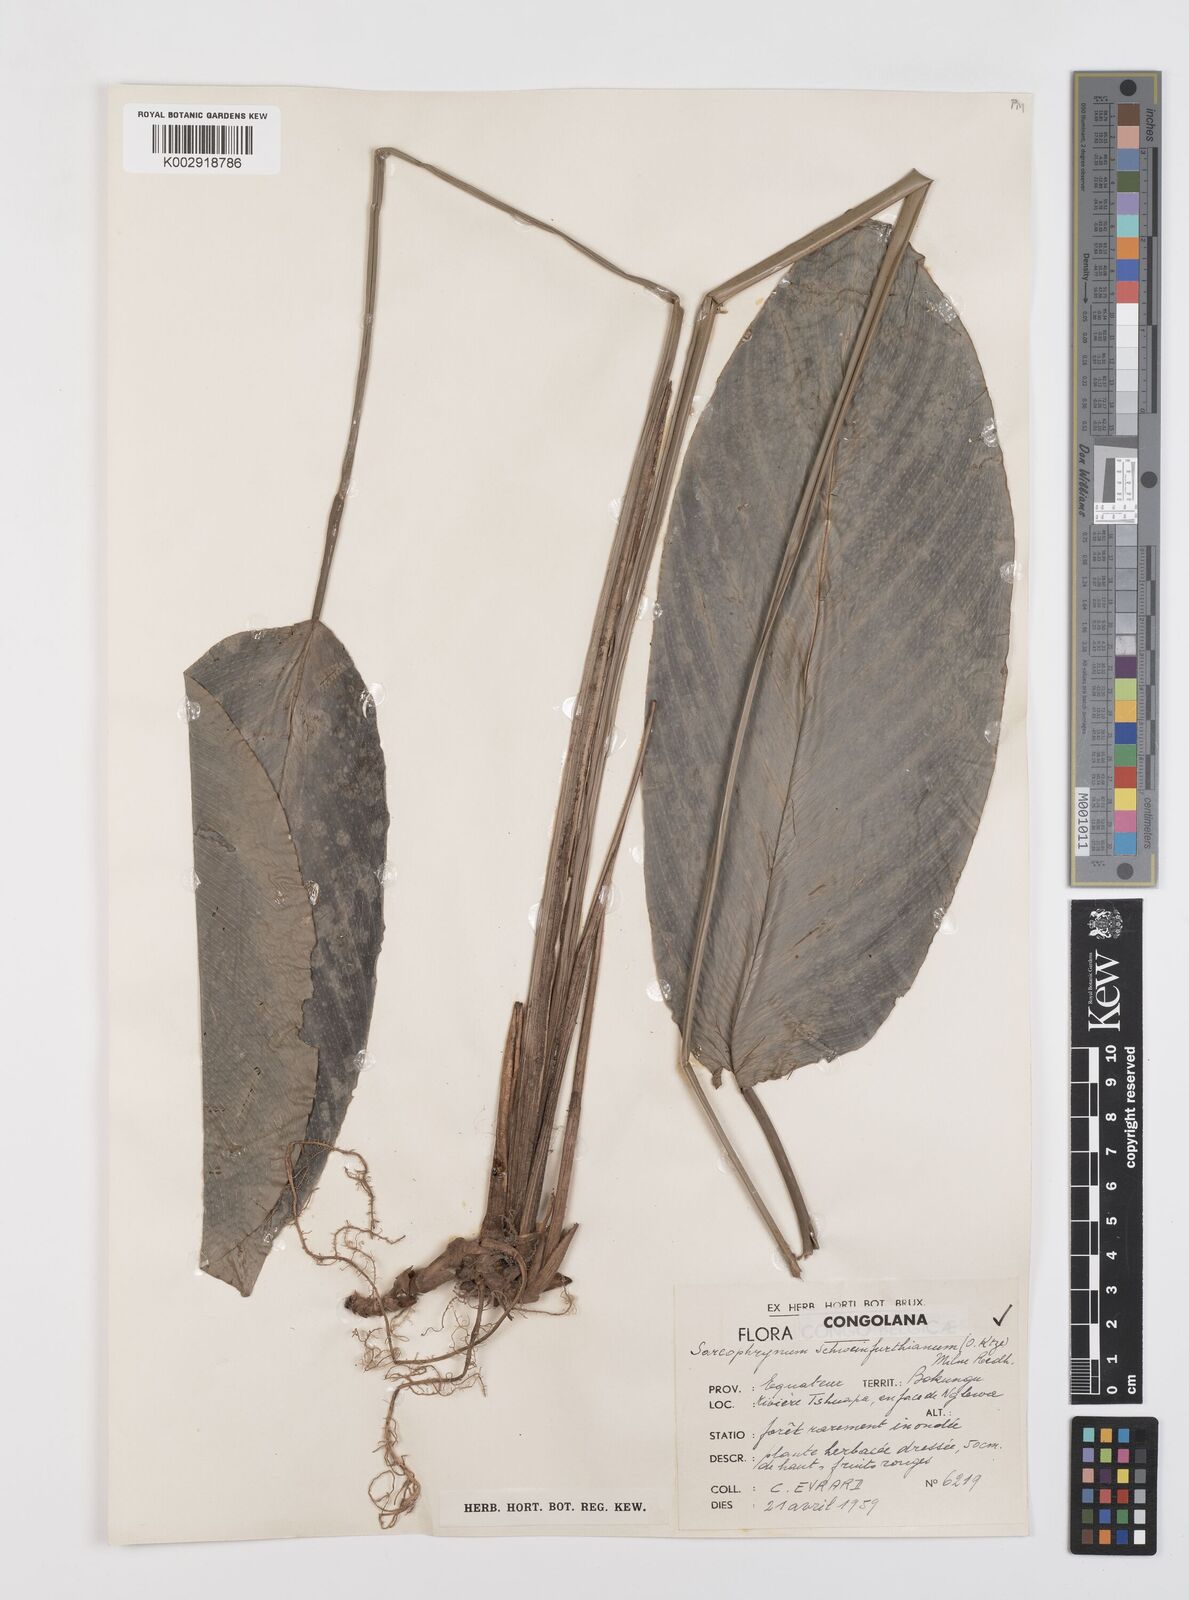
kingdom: Plantae
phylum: Tracheophyta
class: Liliopsida
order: Zingiberales
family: Marantaceae
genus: Sarcophrynium
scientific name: Sarcophrynium schweinfurthianum
